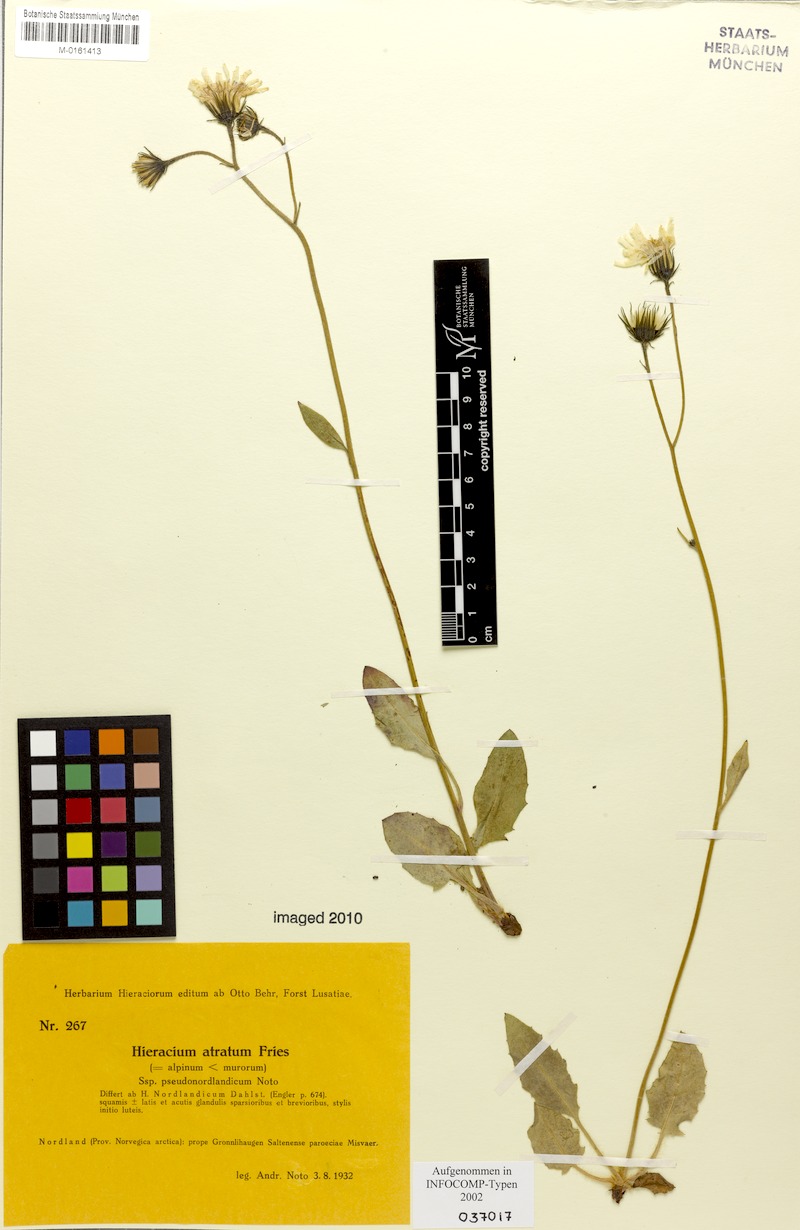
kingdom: Plantae
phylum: Tracheophyta
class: Magnoliopsida
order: Asterales
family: Asteraceae
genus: Hieracium
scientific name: Hieracium atratum
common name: Polar hawkweed
